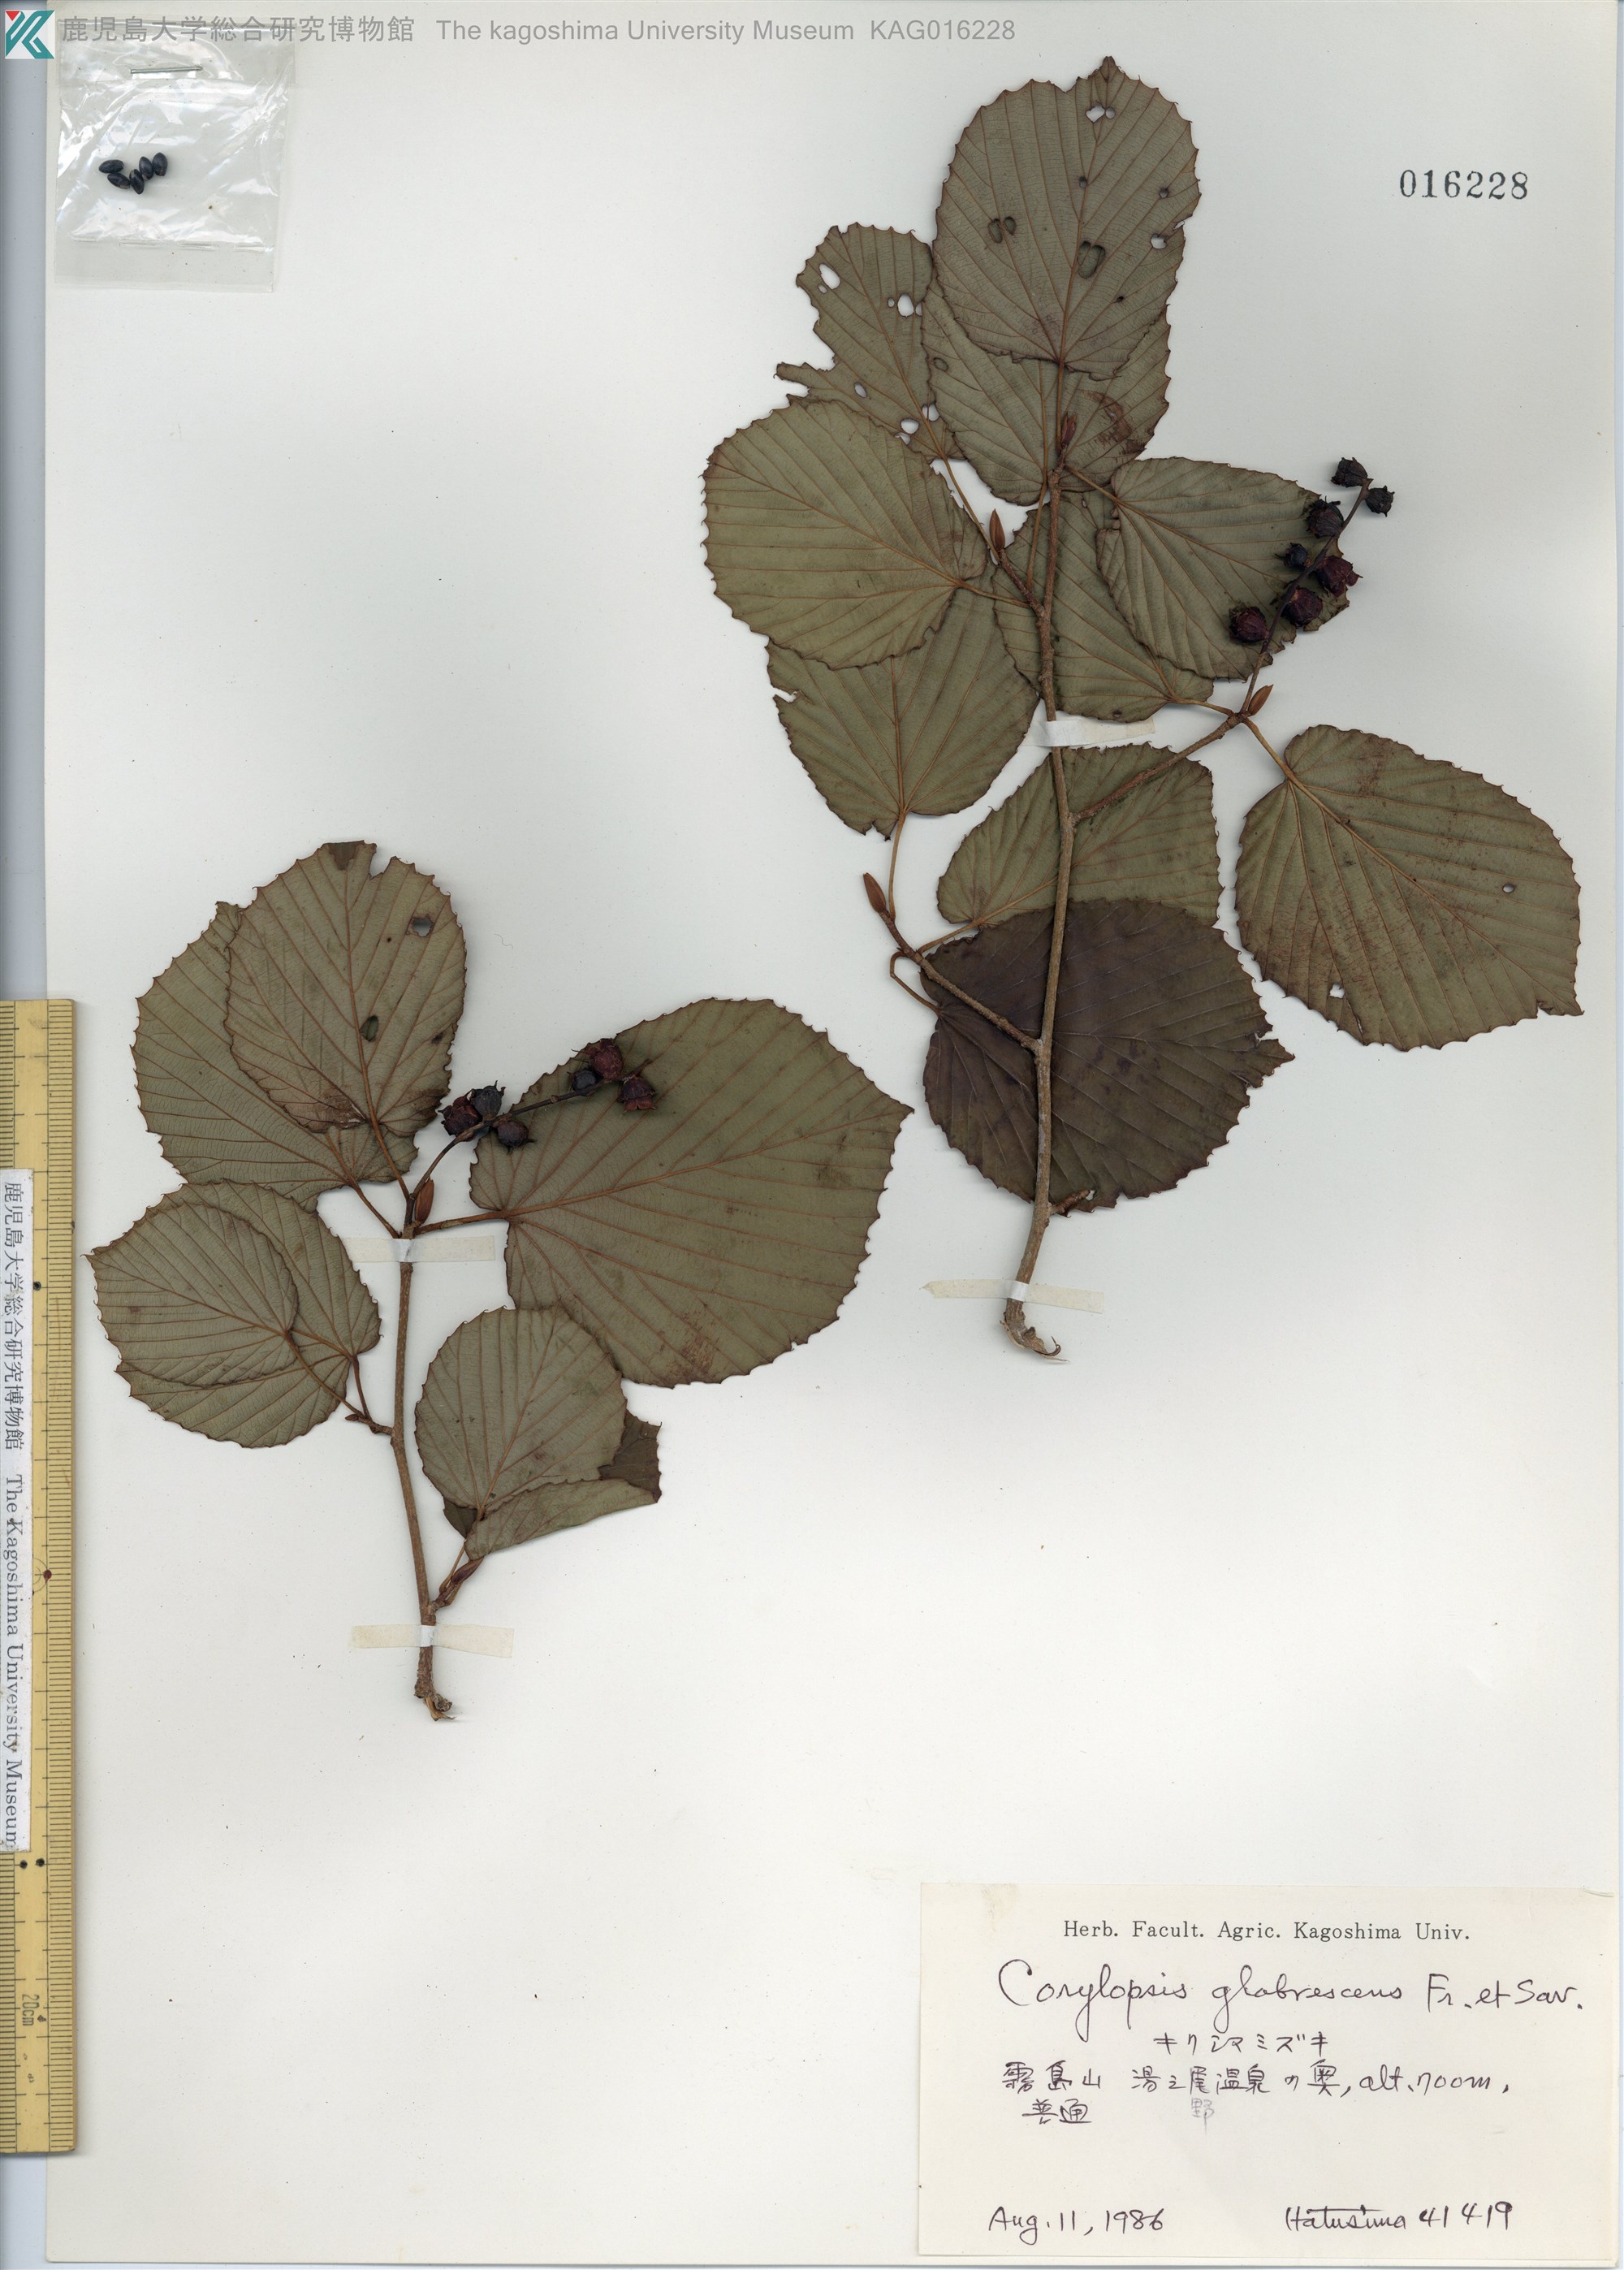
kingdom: Plantae
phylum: Tracheophyta
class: Magnoliopsida
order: Saxifragales
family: Hamamelidaceae
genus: Corylopsis
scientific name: Corylopsis glabrescens
